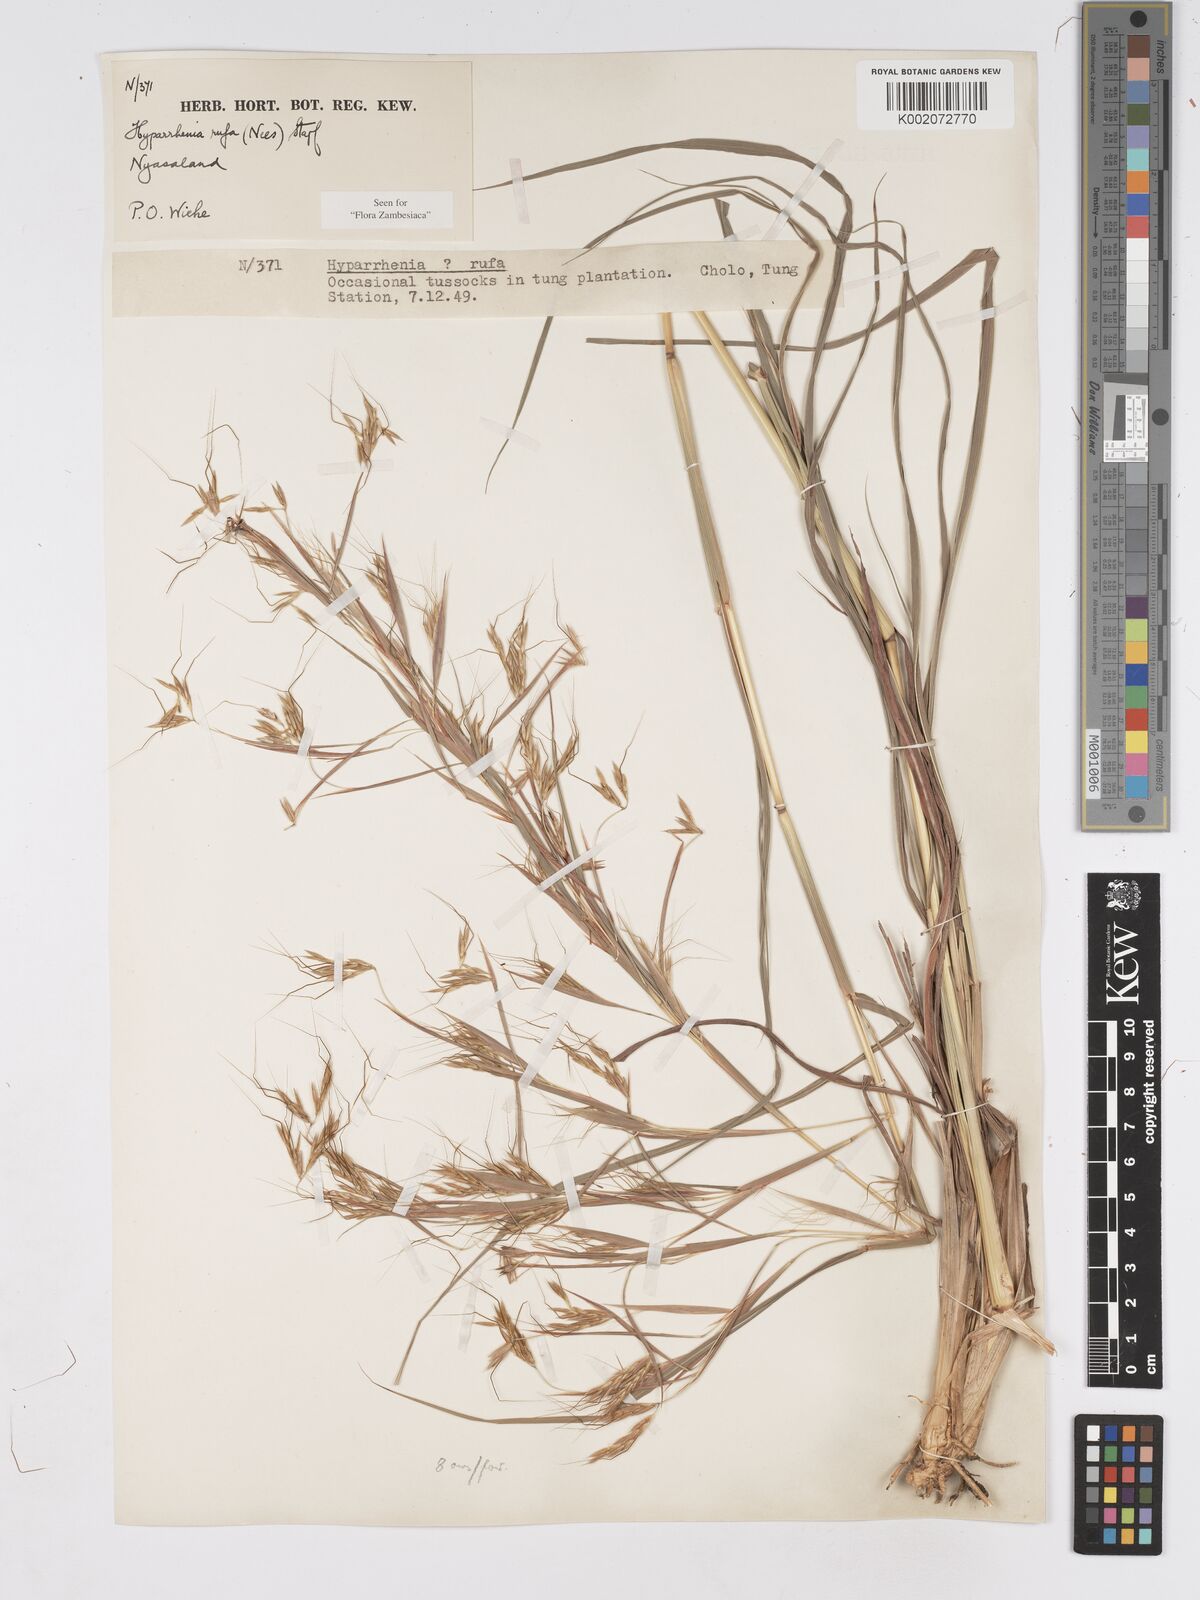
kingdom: Plantae
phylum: Tracheophyta
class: Liliopsida
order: Poales
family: Poaceae
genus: Hyparrhenia
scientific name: Hyparrhenia rufa
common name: Jaraguagrass
